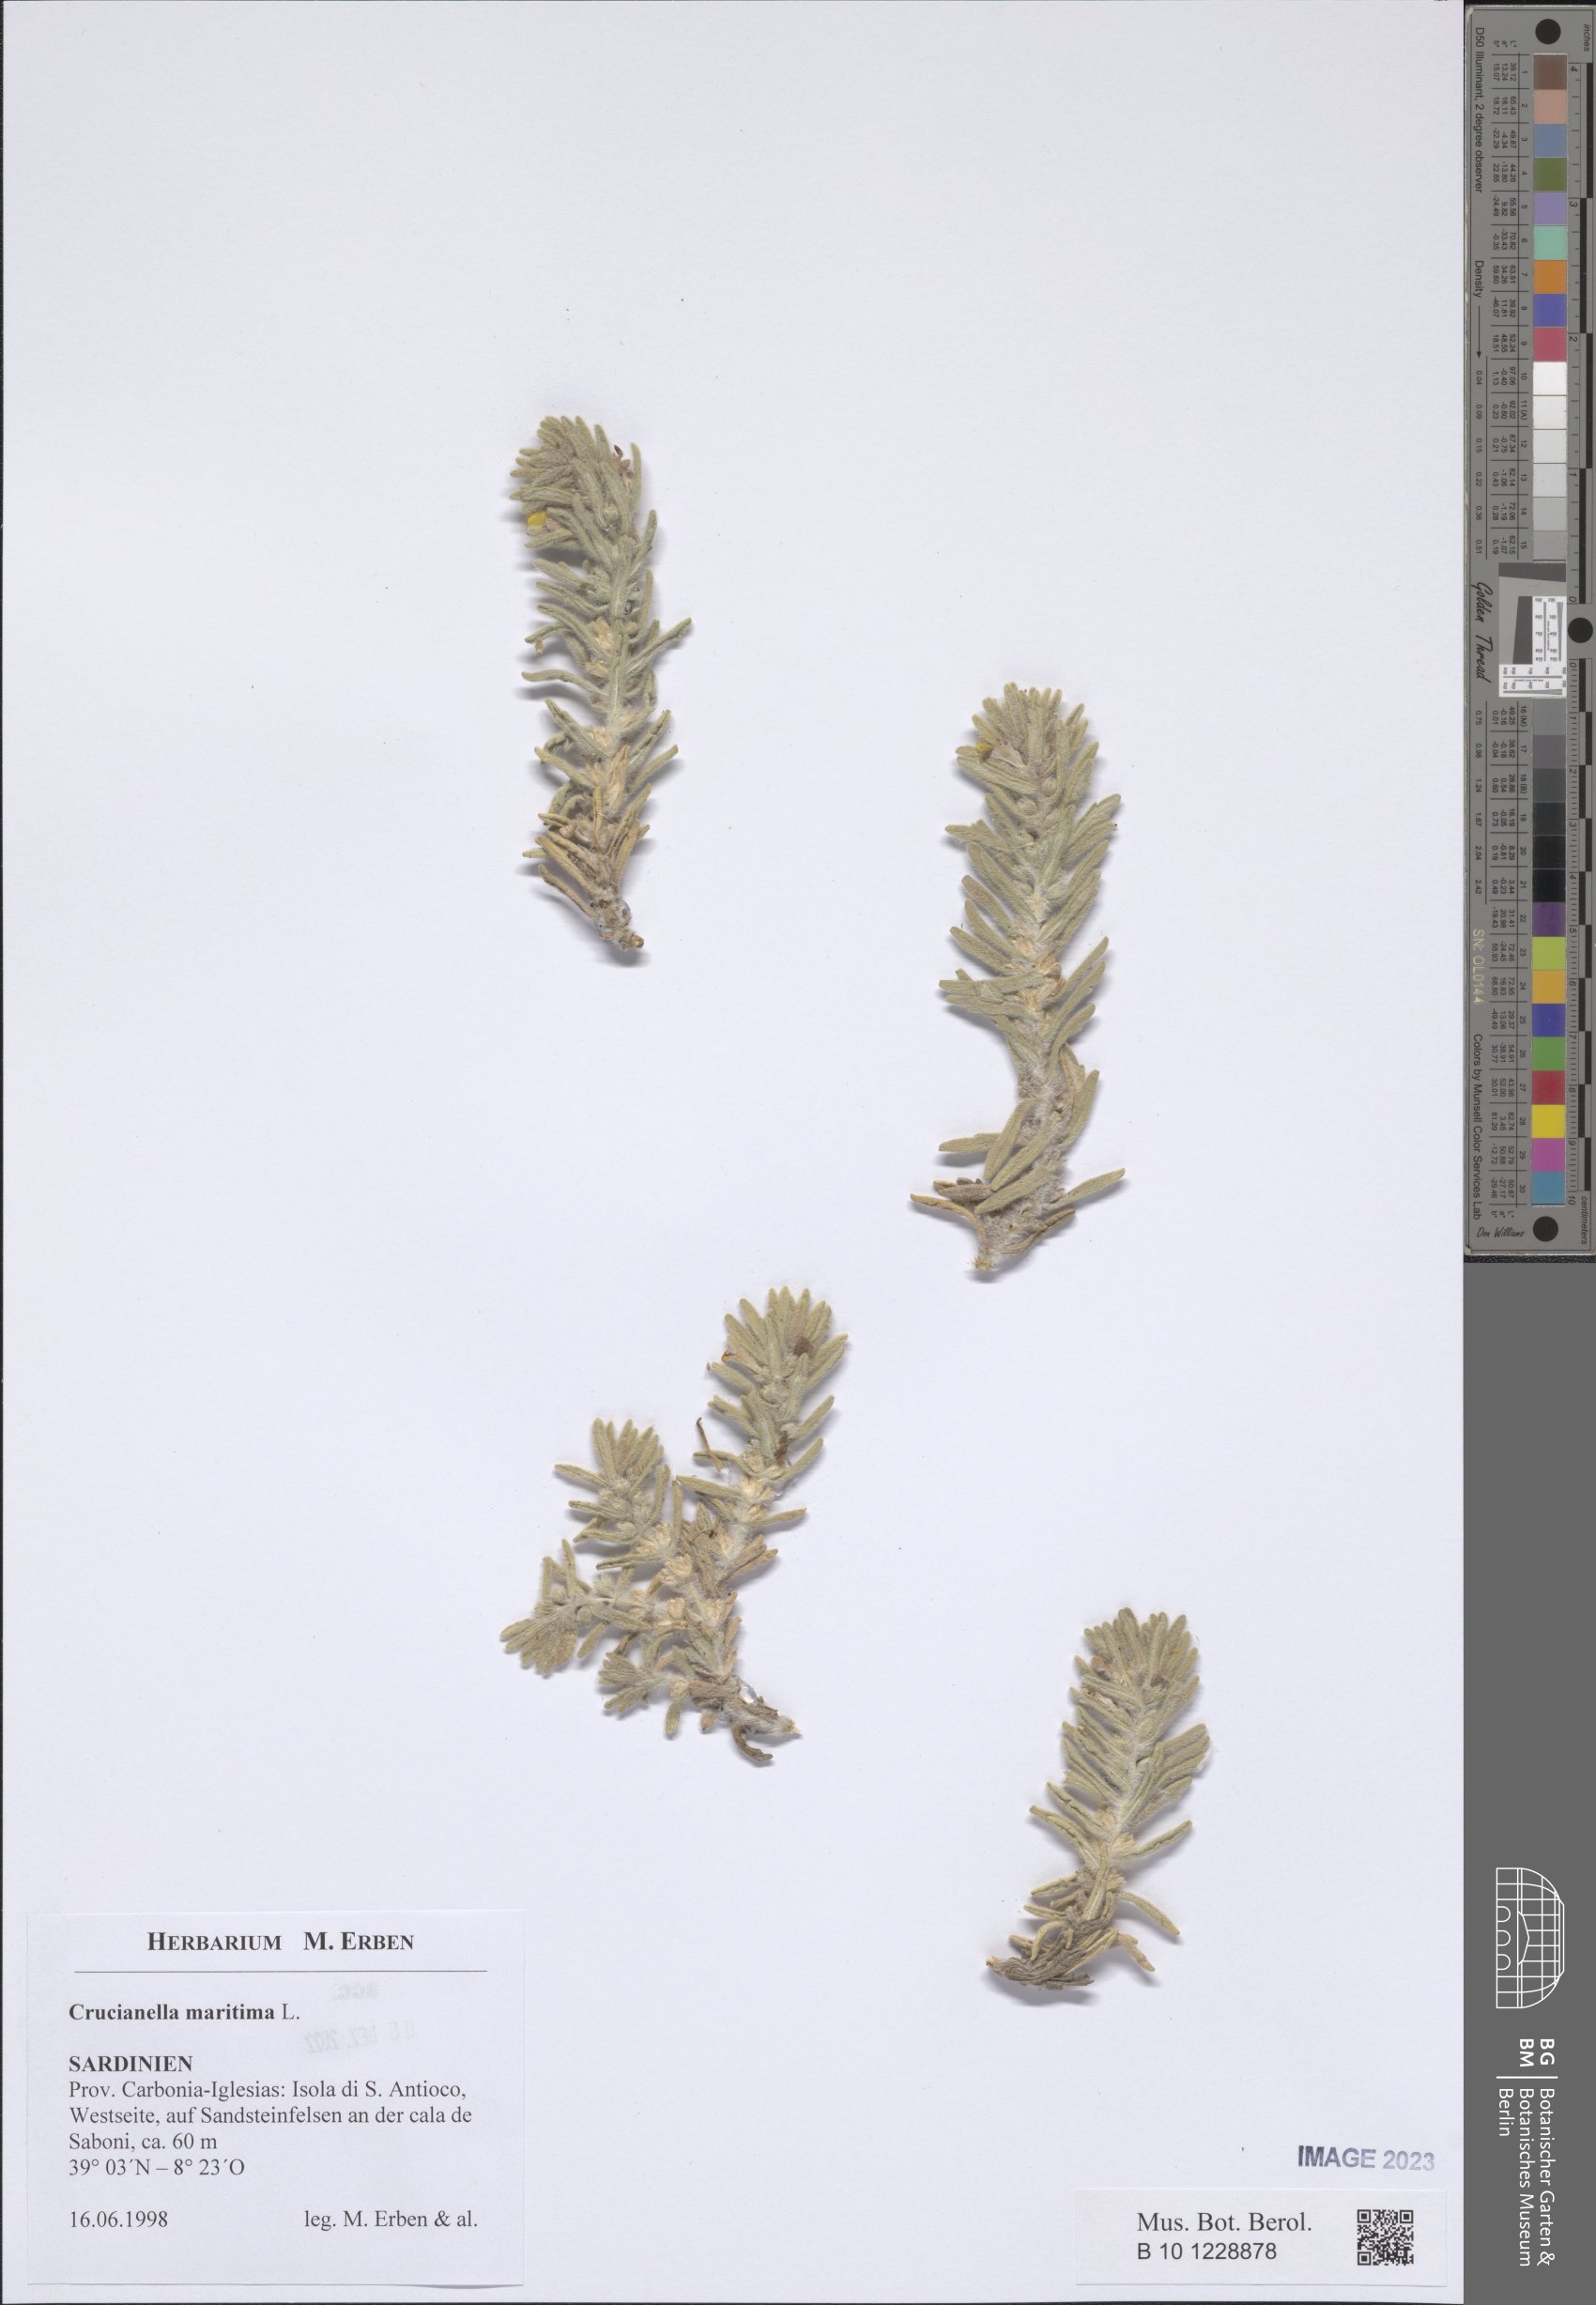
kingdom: Plantae
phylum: Tracheophyta
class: Magnoliopsida
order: Gentianales
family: Rubiaceae
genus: Crucianella
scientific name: Crucianella maritima
